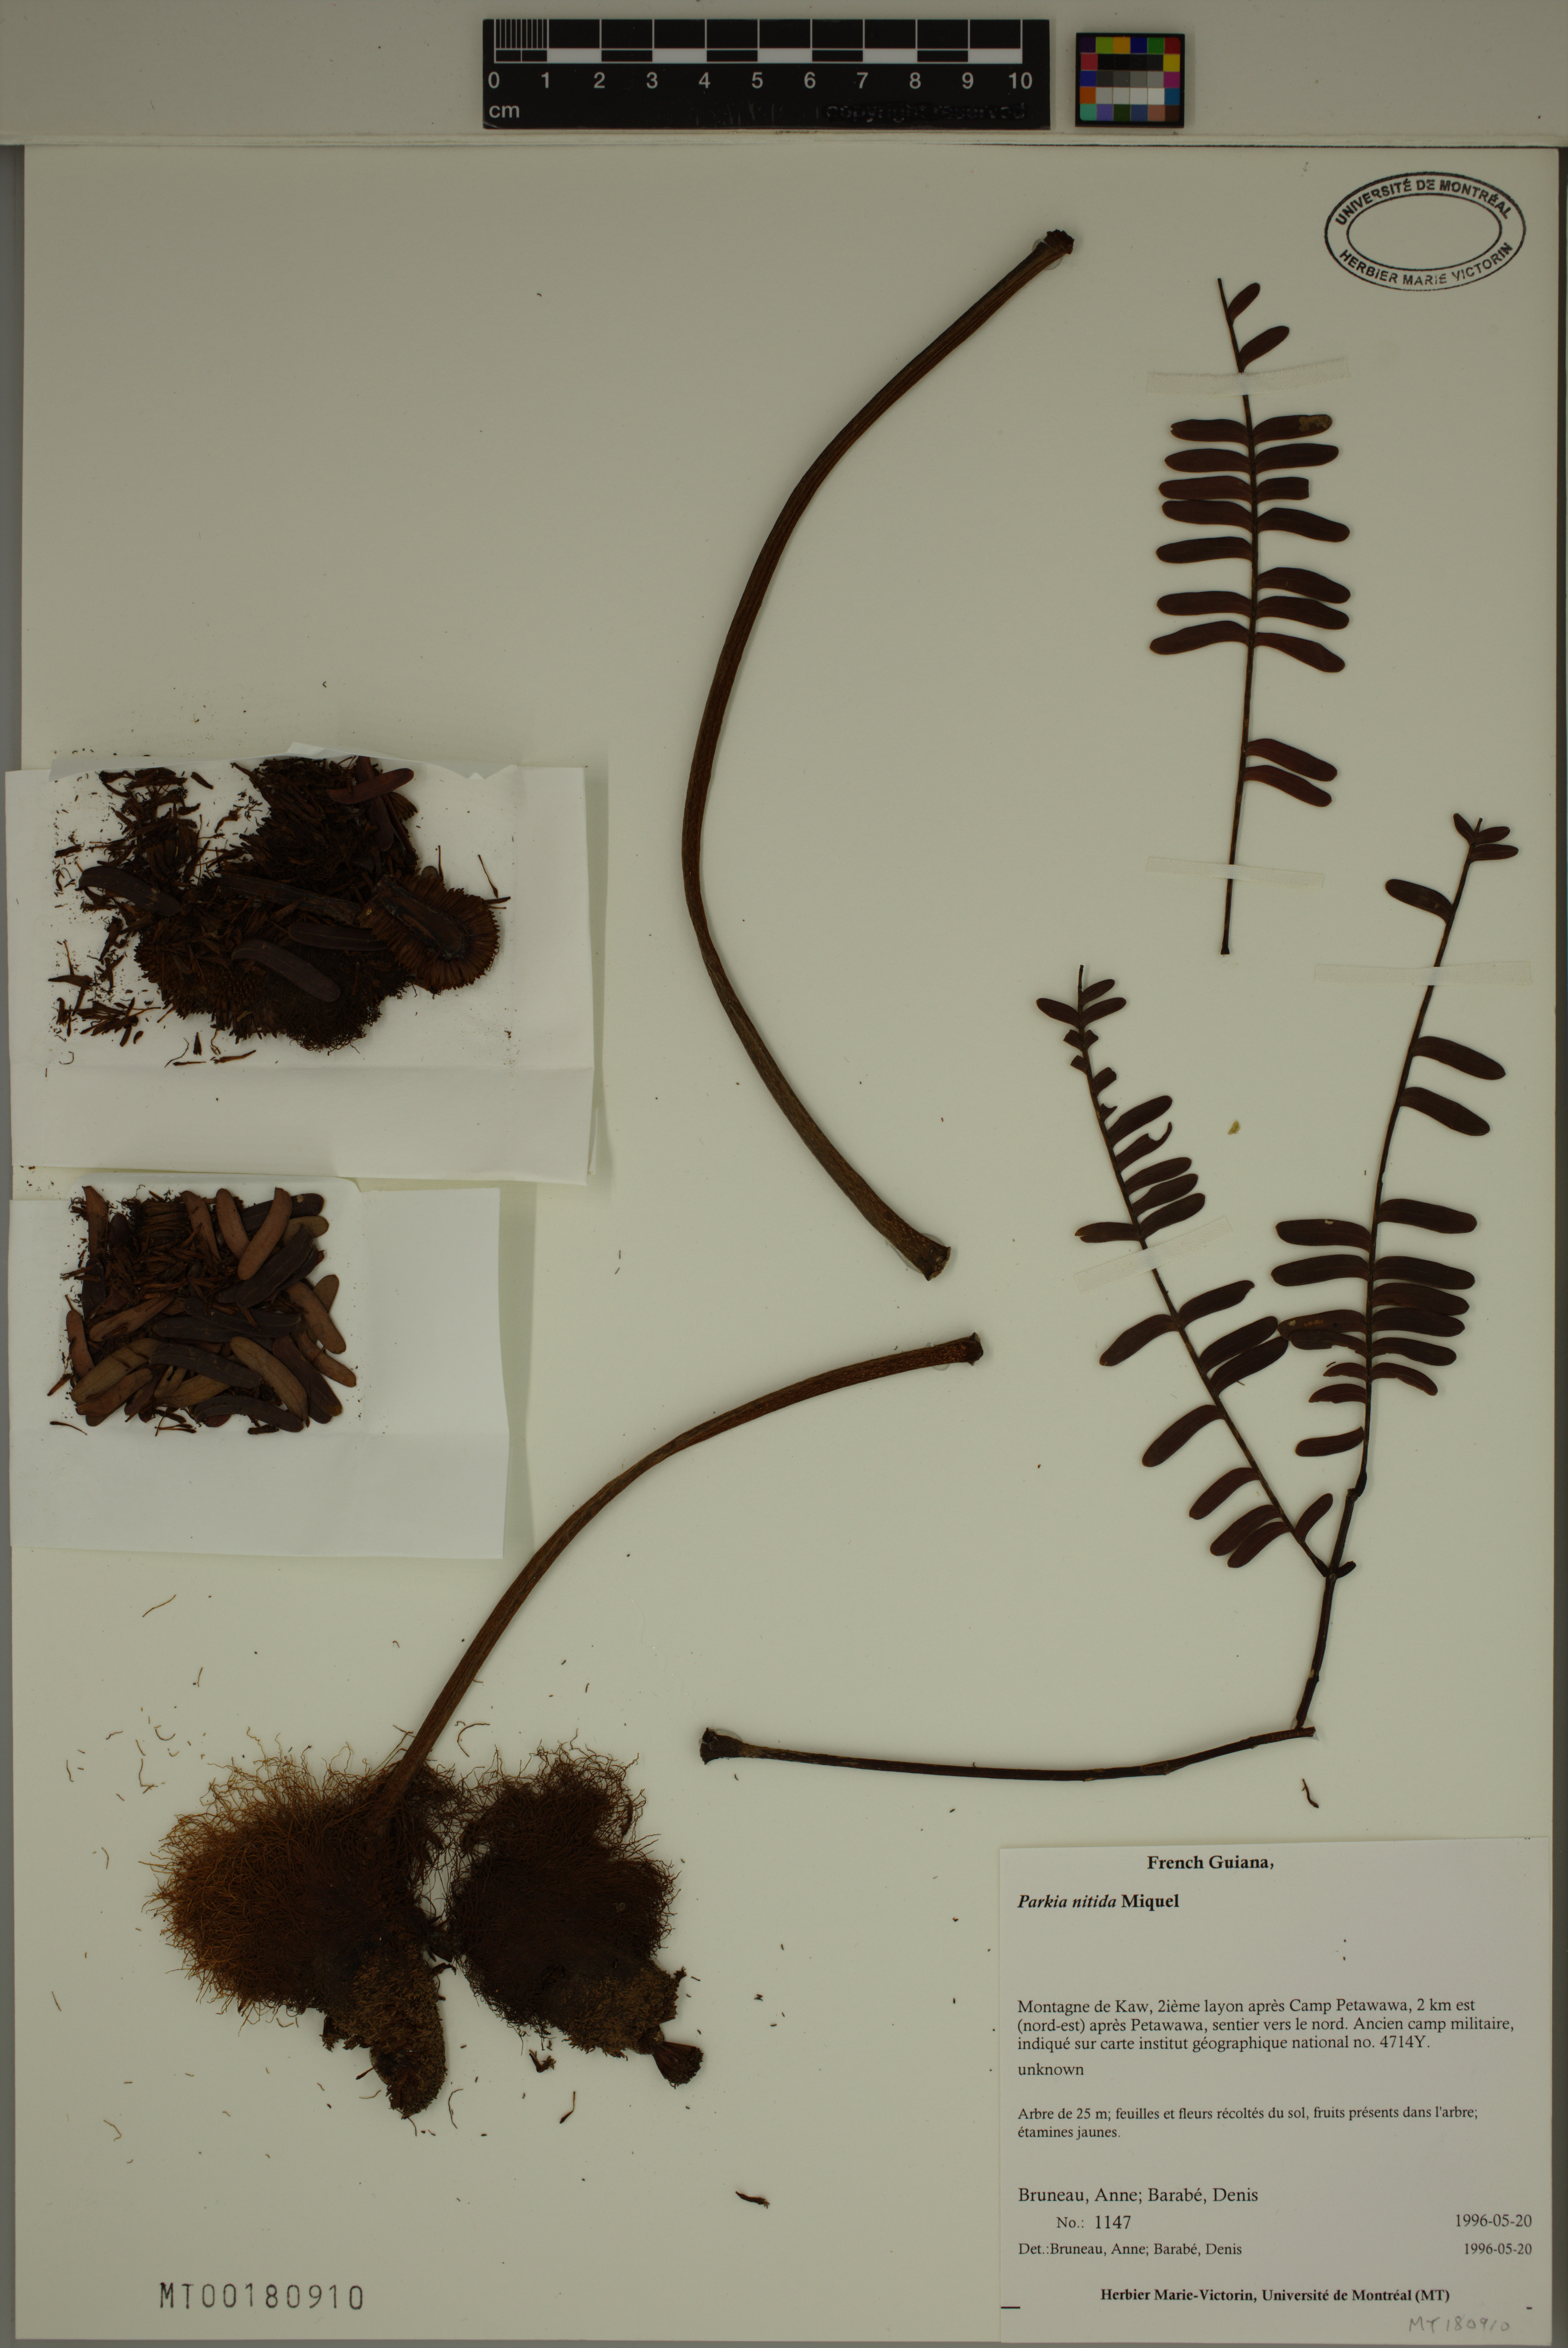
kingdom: Plantae
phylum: Tracheophyta
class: Magnoliopsida
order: Fabales
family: Fabaceae
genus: Parkia
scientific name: Parkia nitida
